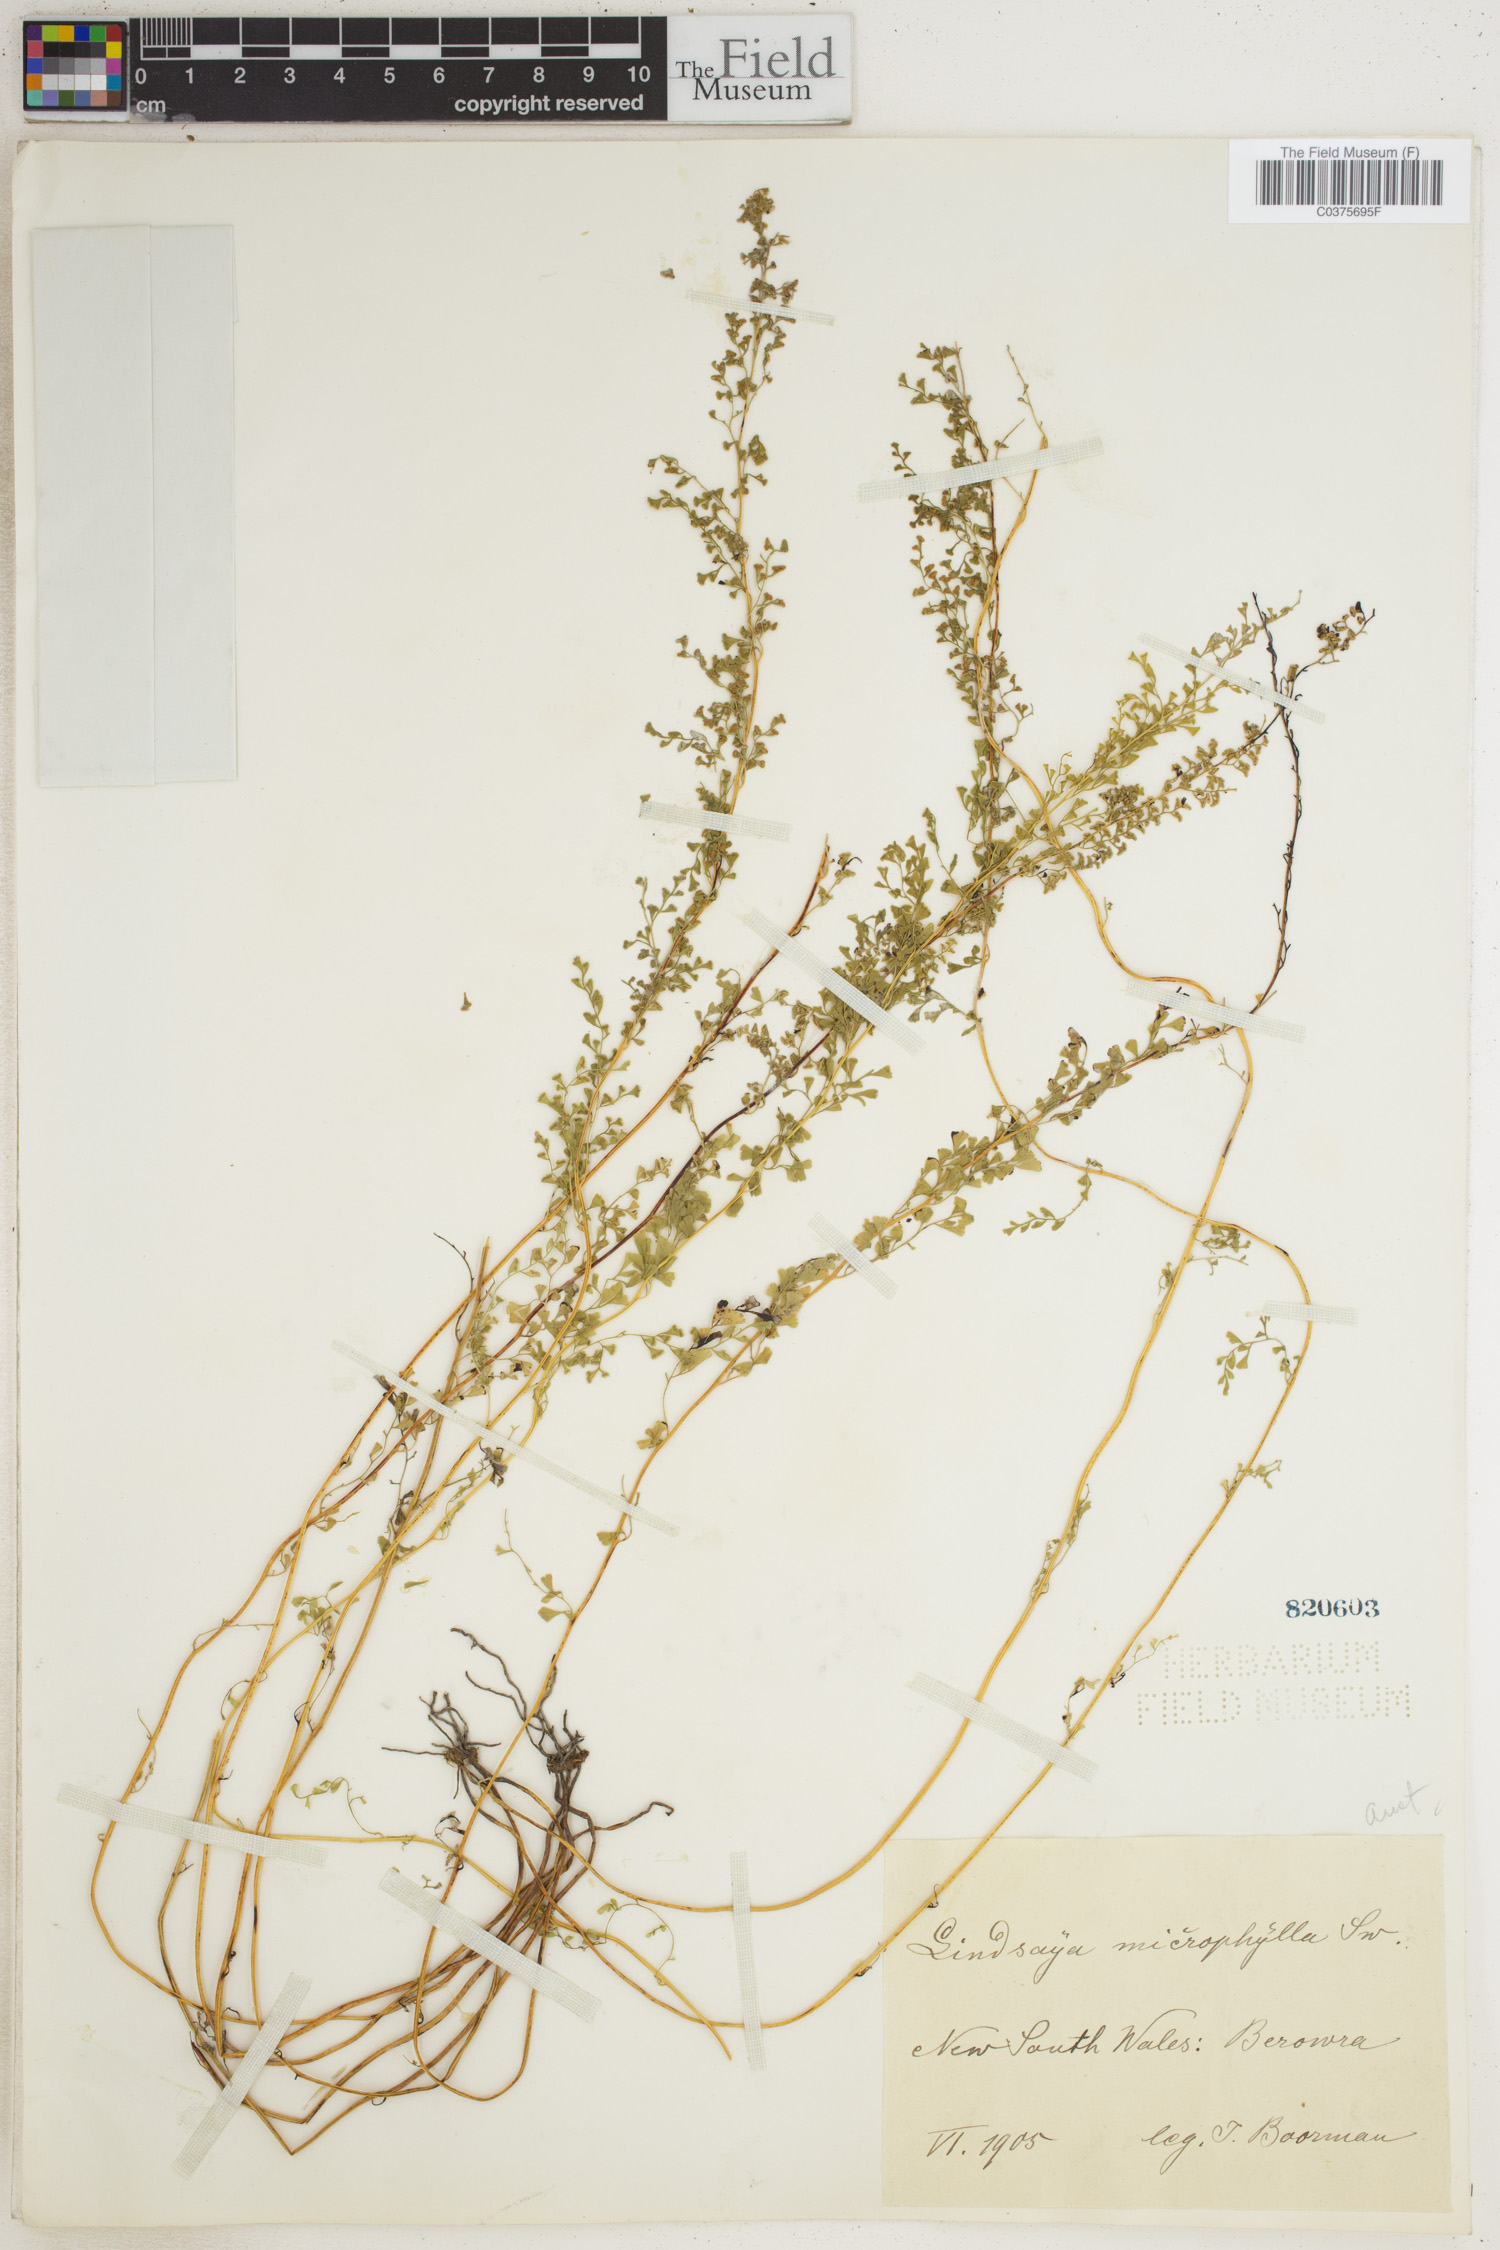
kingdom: Plantae
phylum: Tracheophyta
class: Polypodiopsida
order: Polypodiales
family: Lindsaeaceae
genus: Lindsaea
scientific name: Lindsaea stricta
